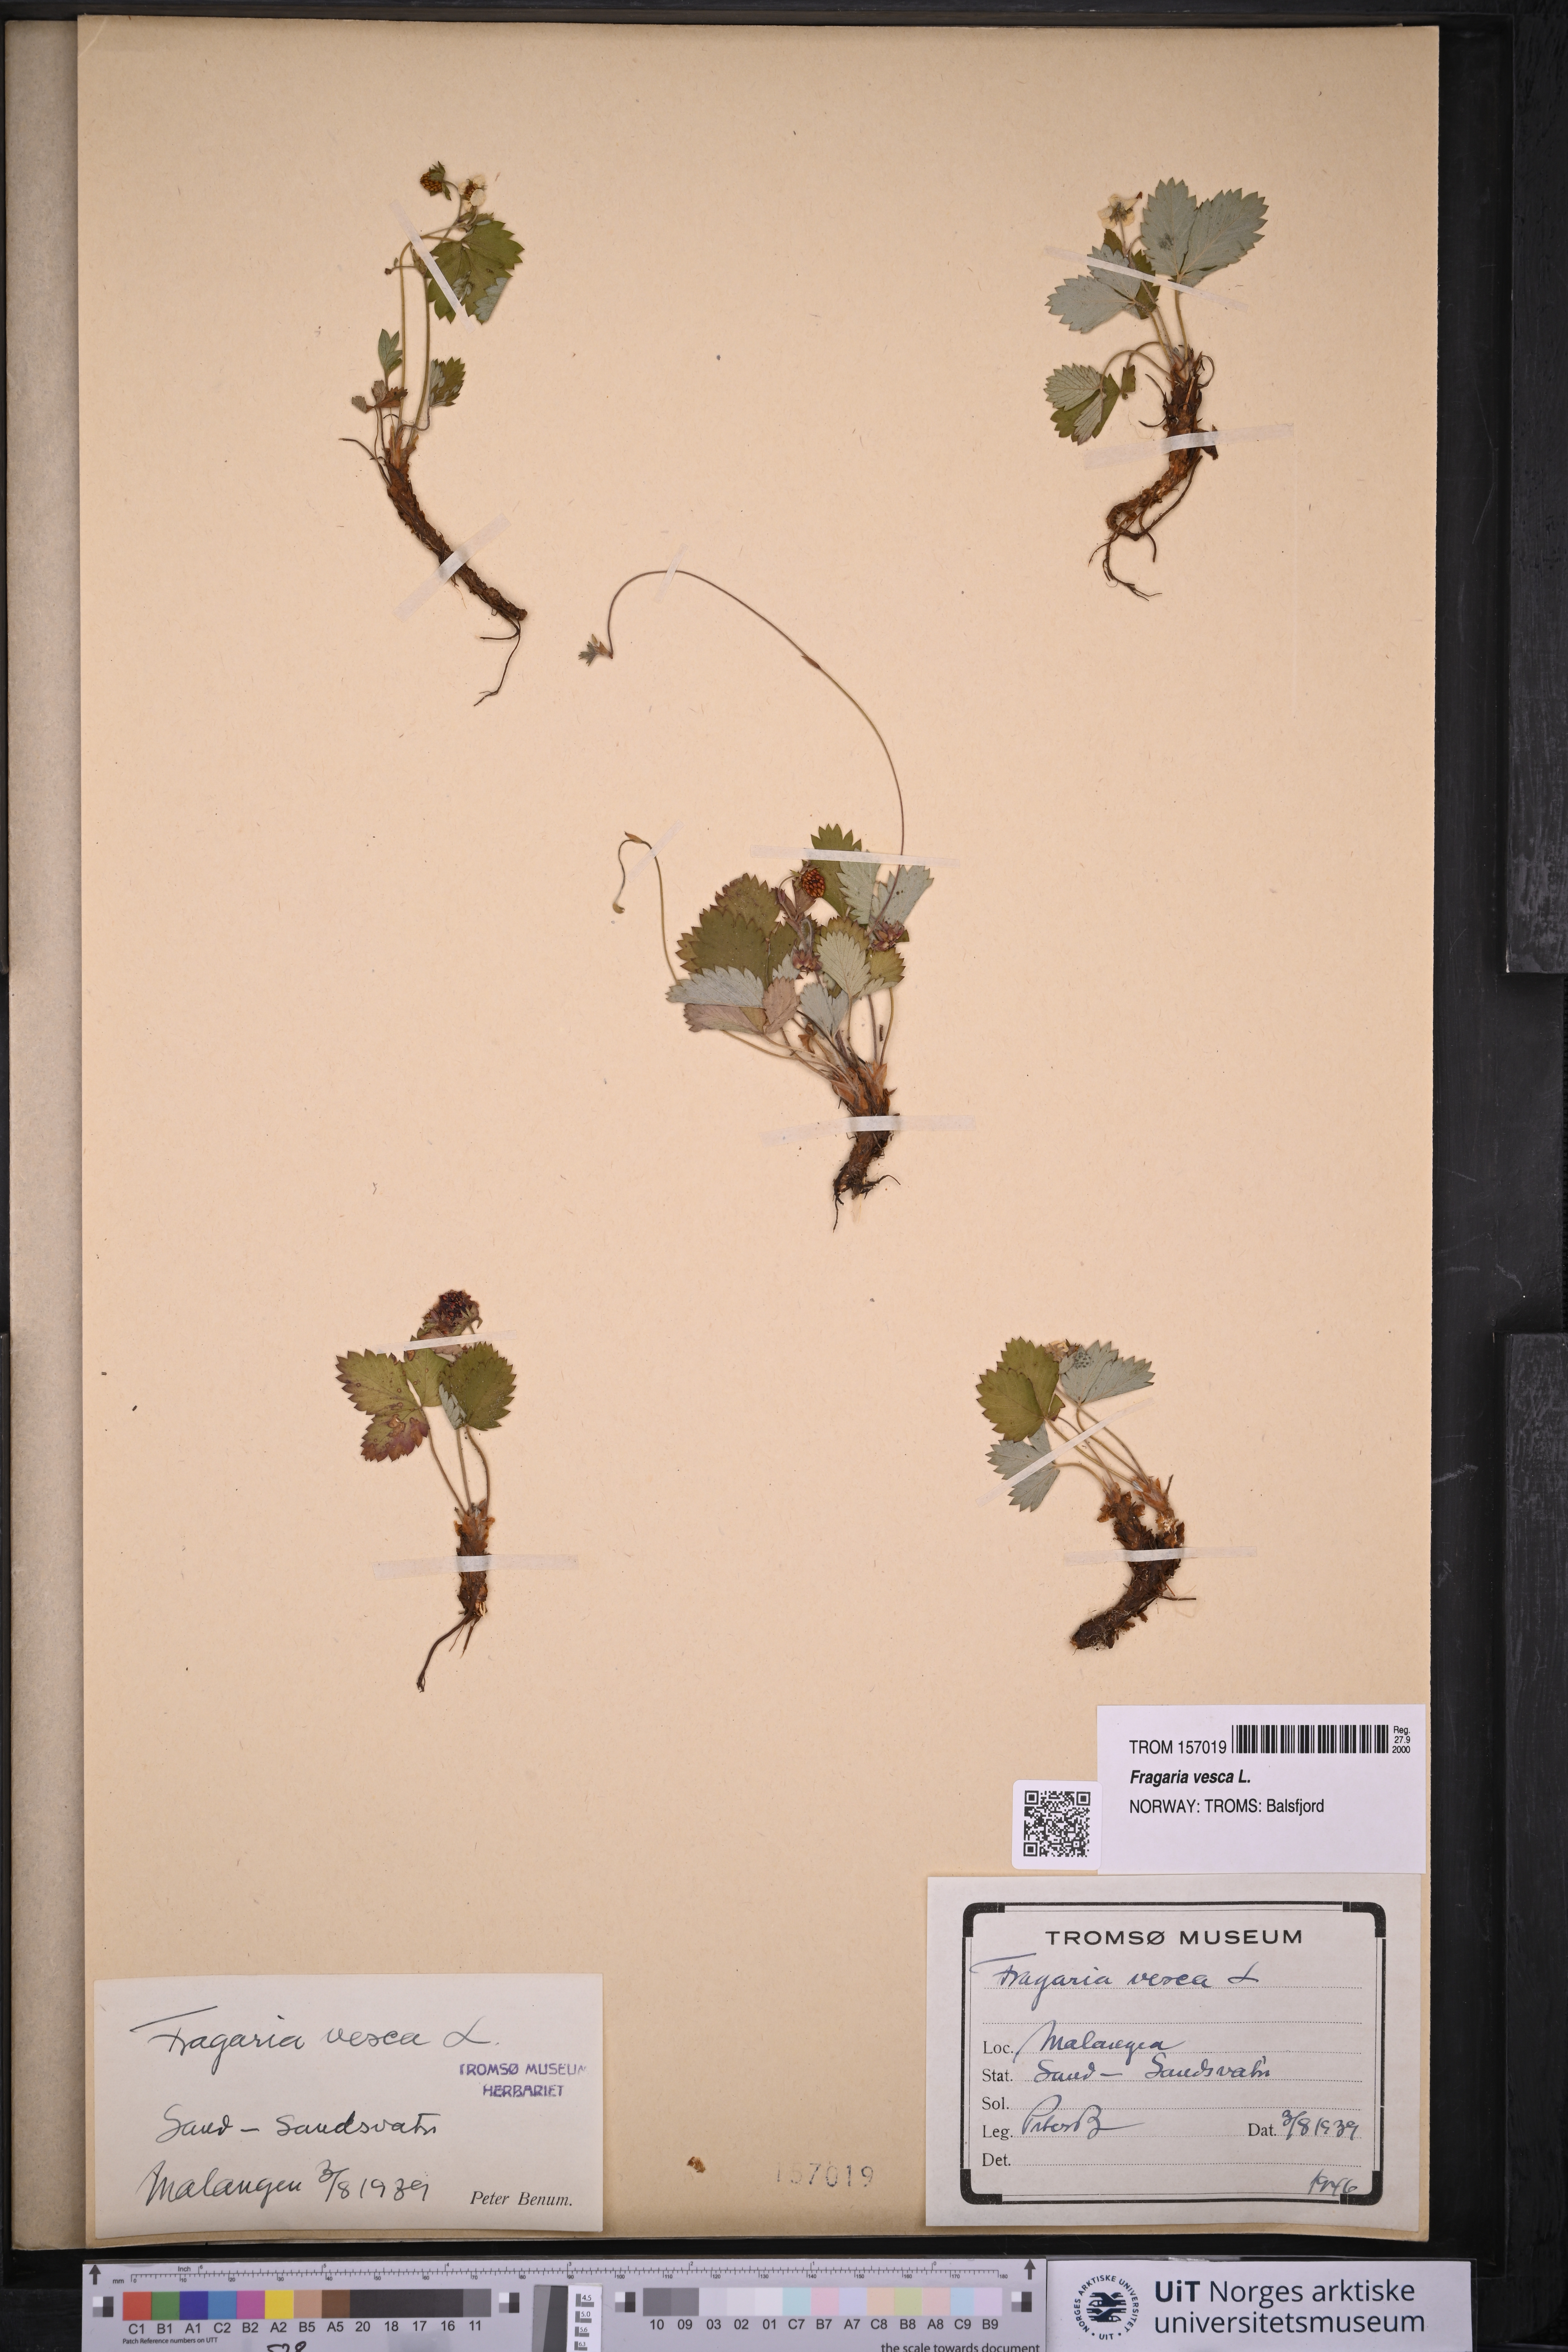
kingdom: Plantae
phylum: Tracheophyta
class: Magnoliopsida
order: Rosales
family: Rosaceae
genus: Fragaria
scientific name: Fragaria vesca
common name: Wild strawberry
